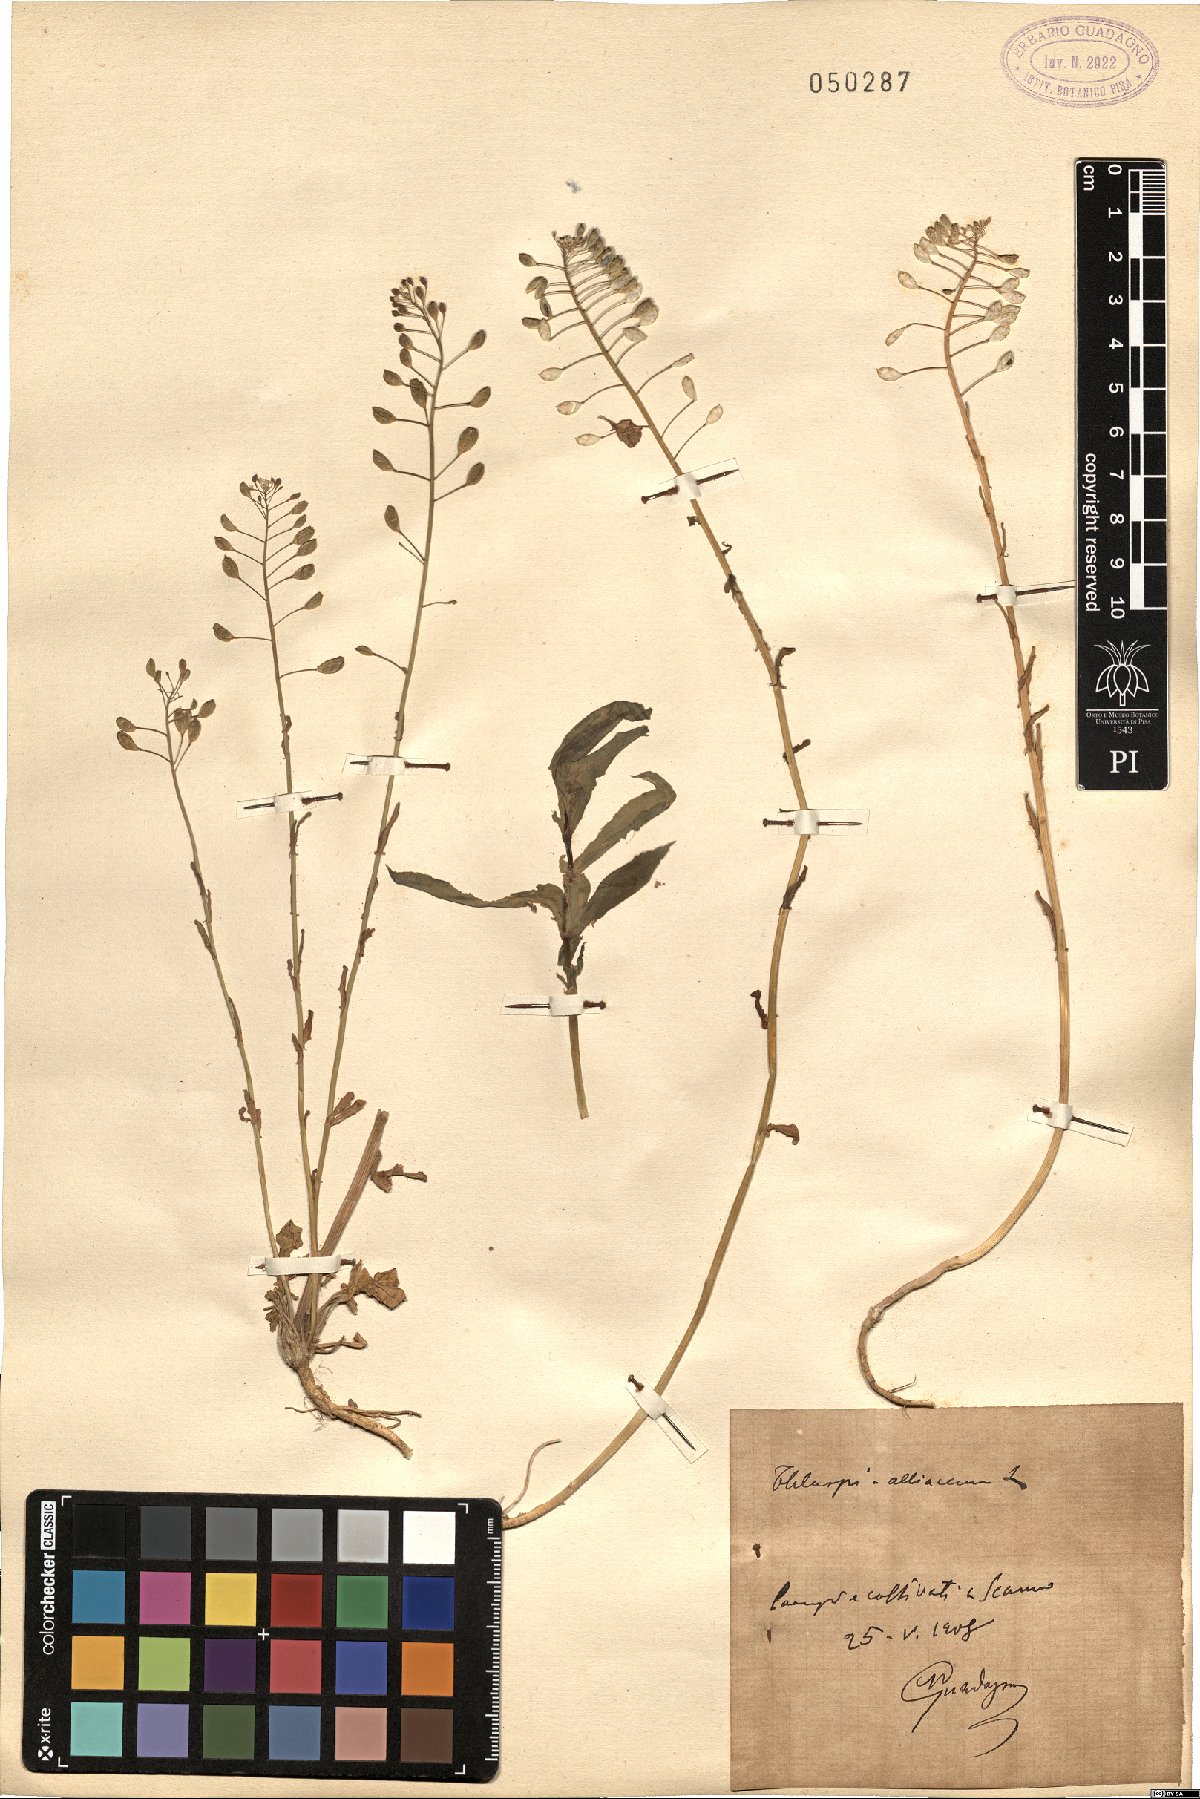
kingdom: Plantae
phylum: Tracheophyta
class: Magnoliopsida
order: Brassicales
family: Brassicaceae
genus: Mummenhoffia
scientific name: Mummenhoffia alliacea
